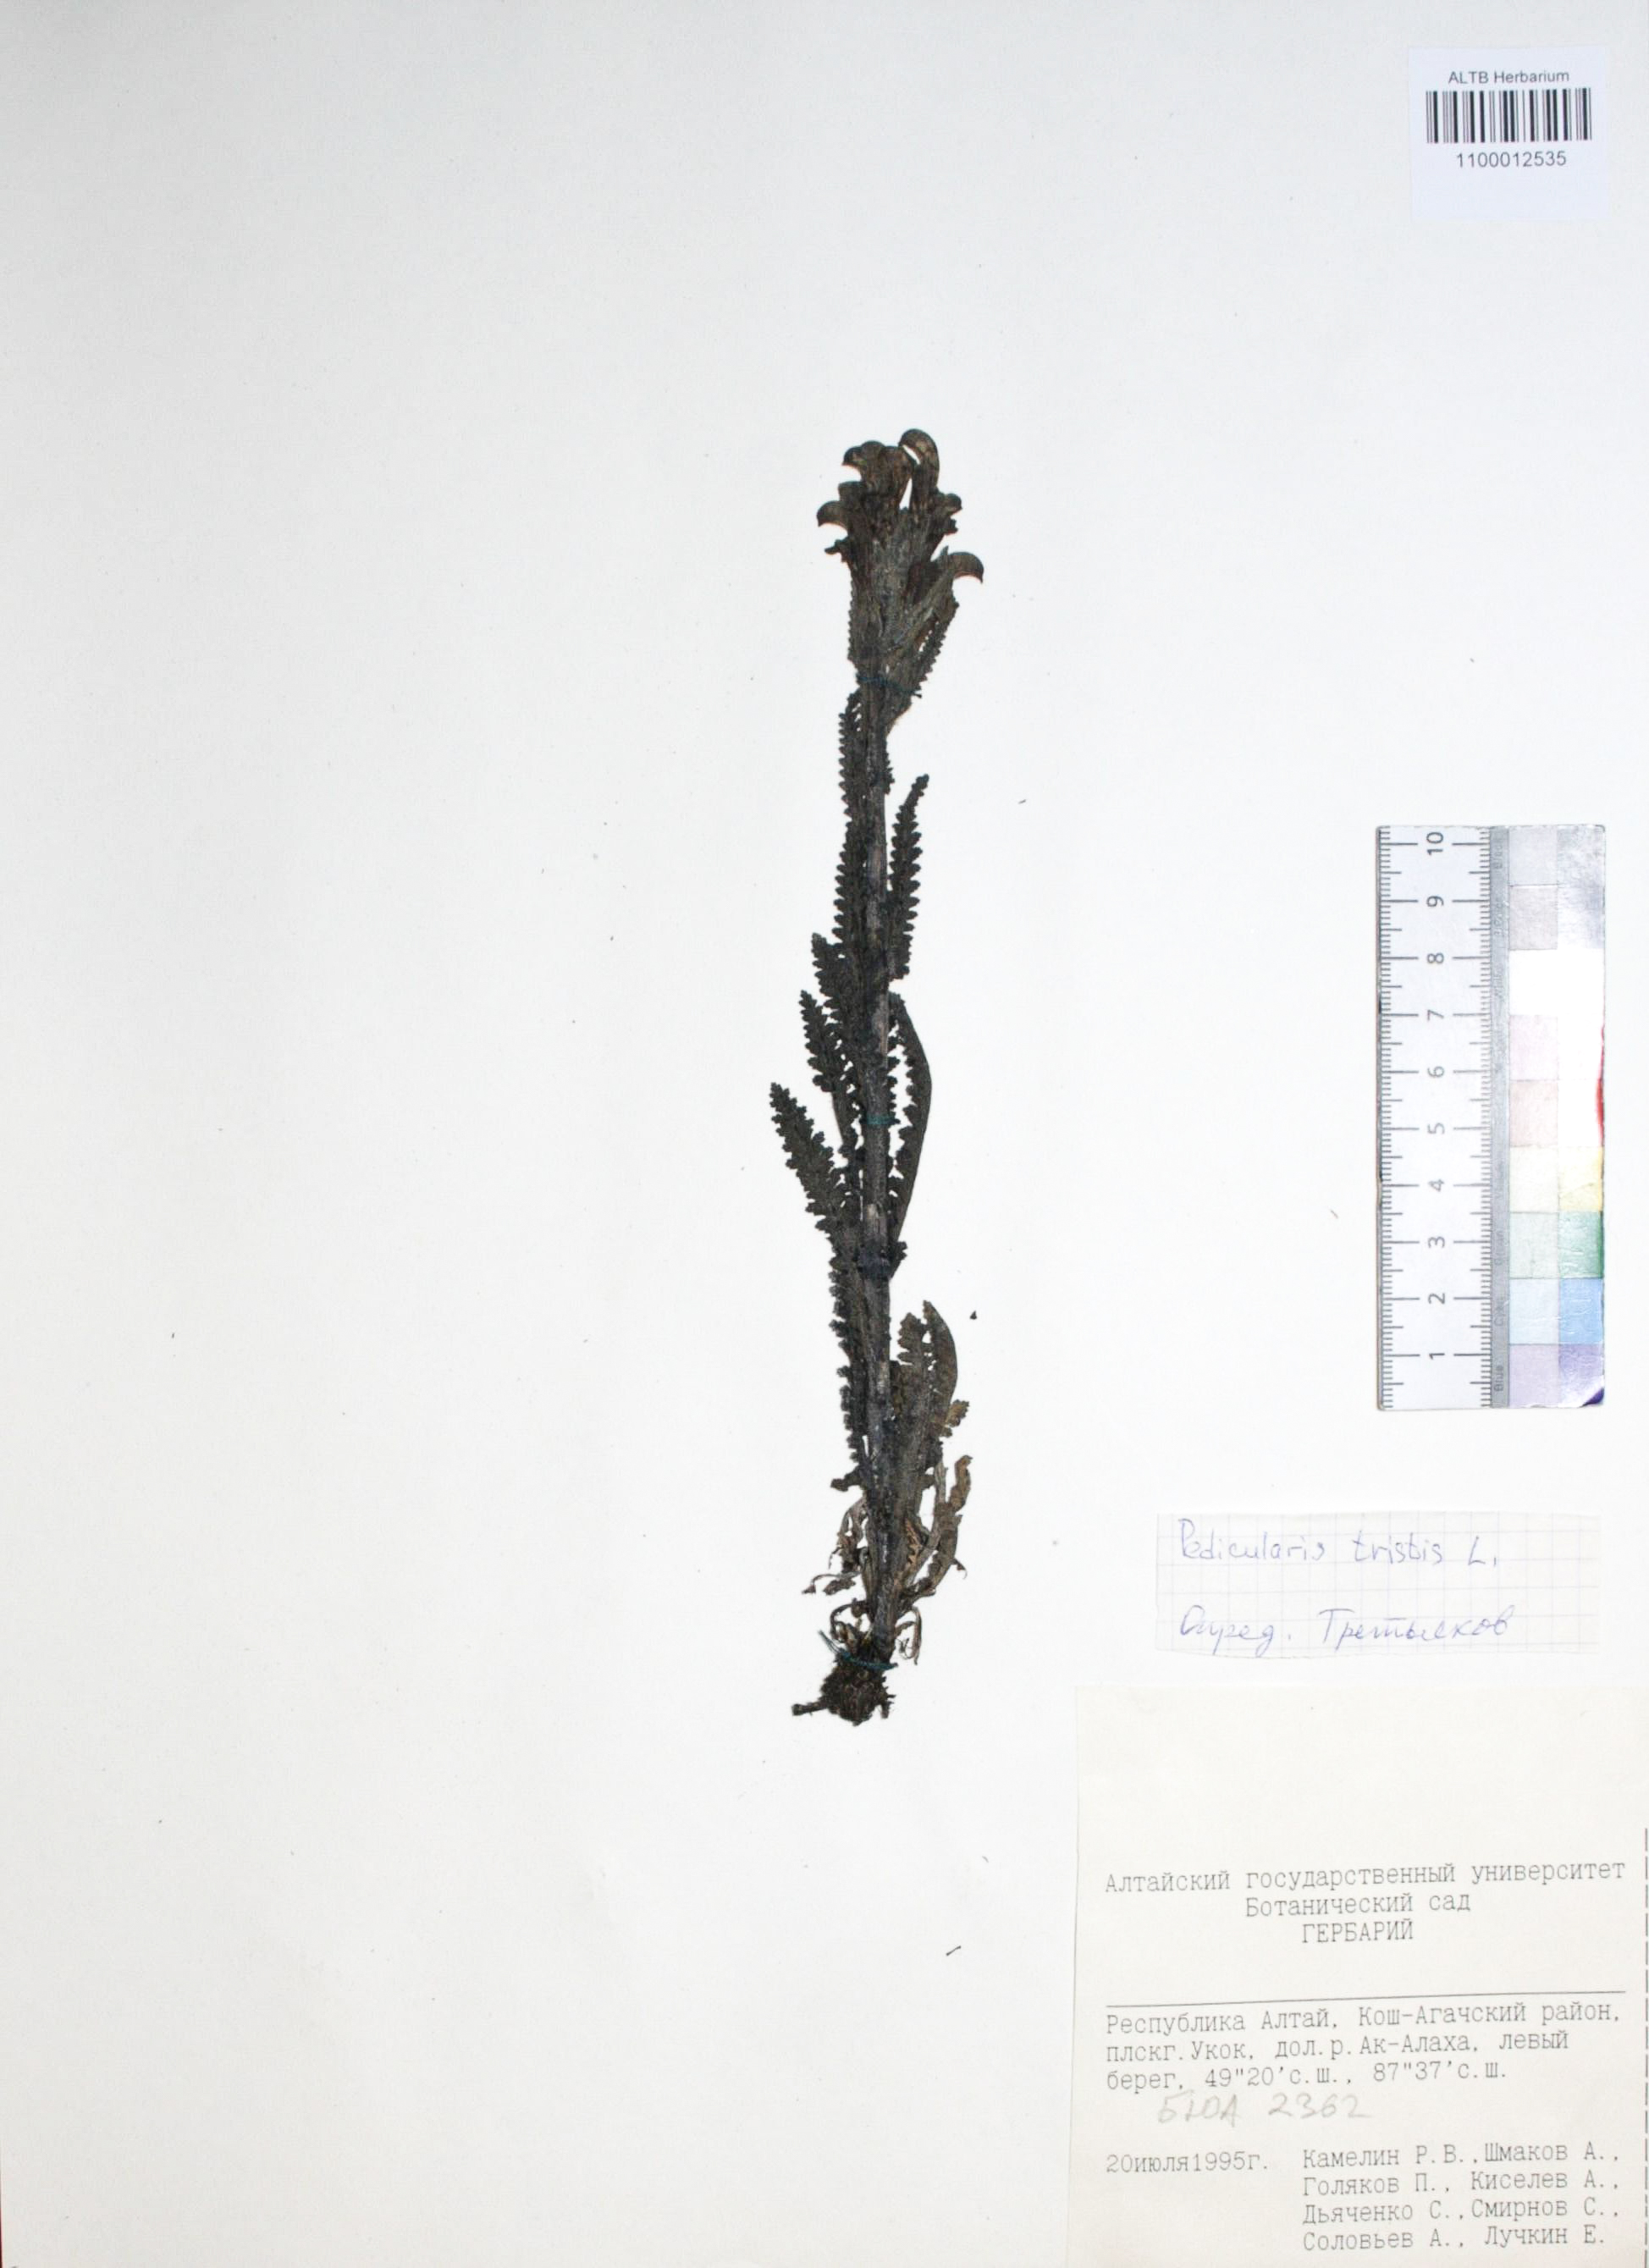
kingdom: Plantae
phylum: Tracheophyta
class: Magnoliopsida
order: Lamiales
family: Orobanchaceae
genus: Pedicularis
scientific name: Pedicularis tristis
